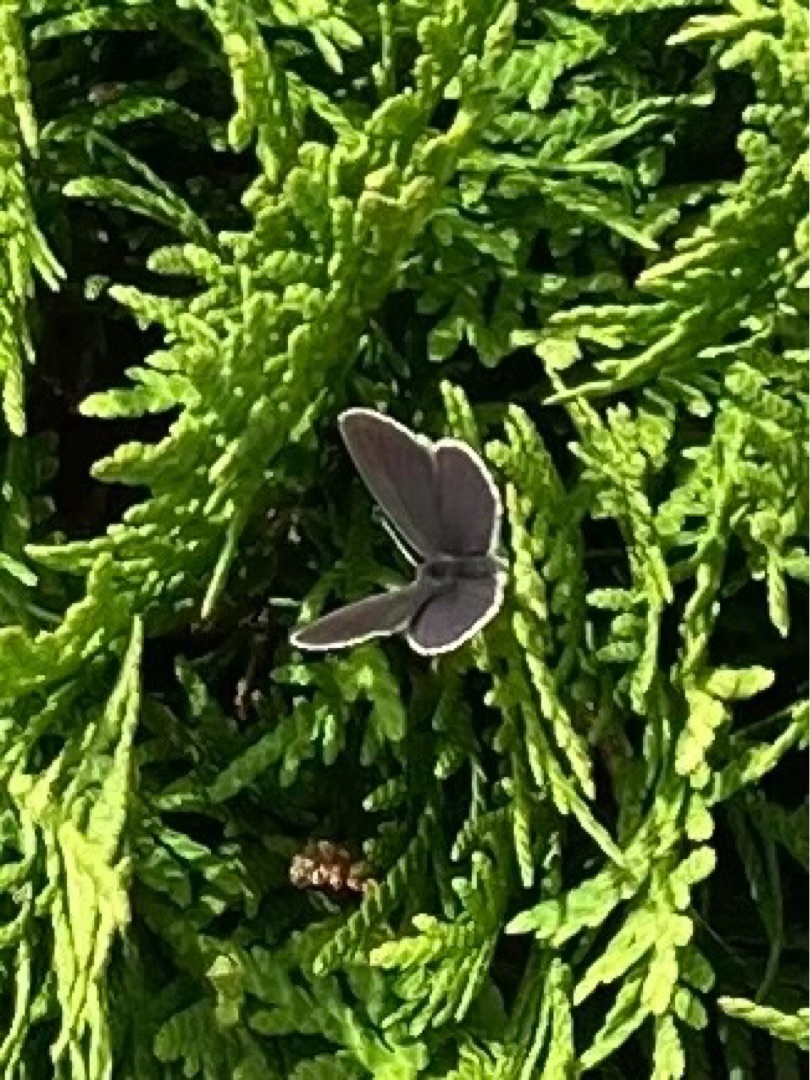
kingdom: Animalia
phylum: Arthropoda
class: Insecta
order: Lepidoptera
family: Lycaenidae
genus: Cupido
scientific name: Cupido minimus
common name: Dværgblåfugl
